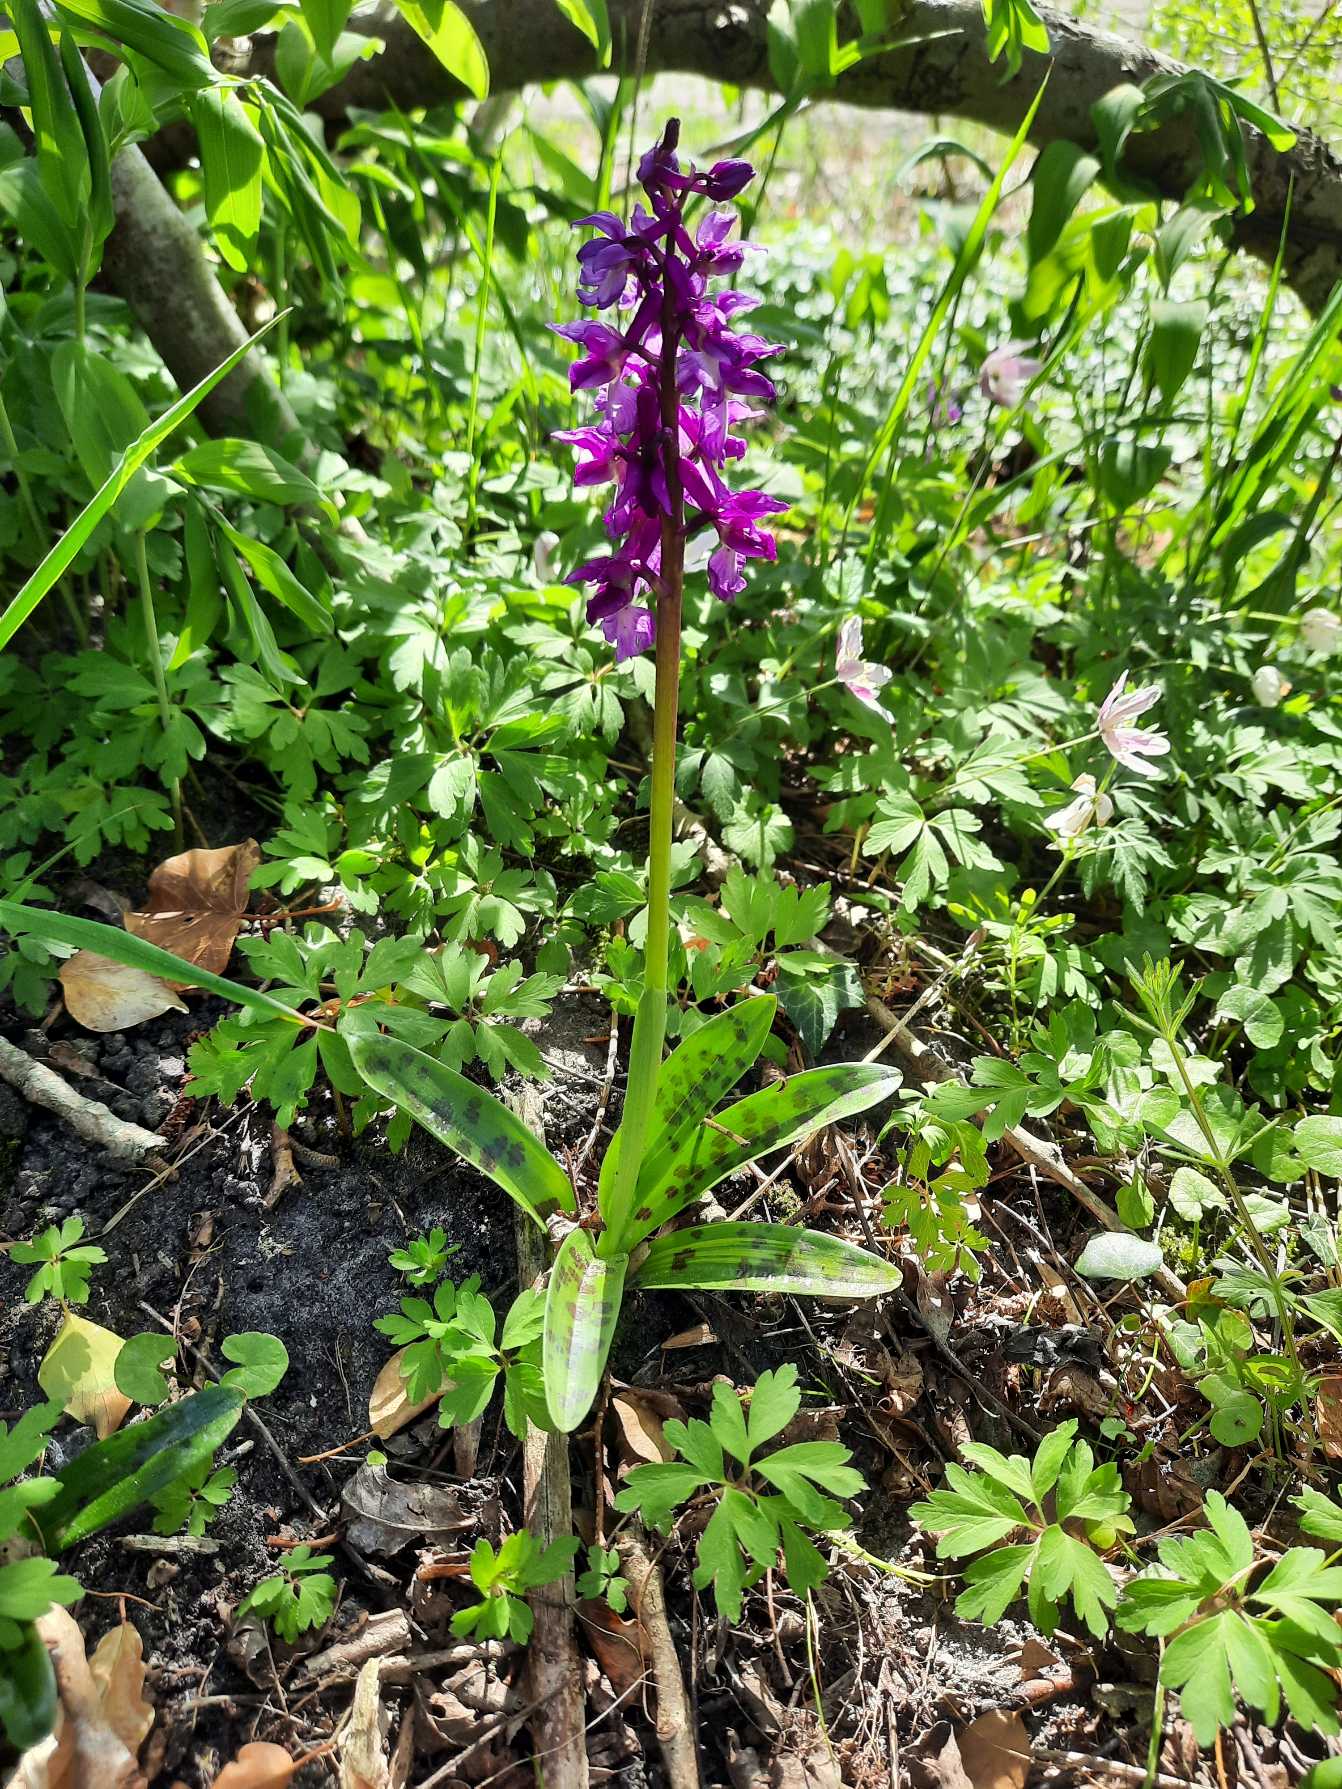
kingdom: Plantae
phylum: Tracheophyta
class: Liliopsida
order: Asparagales
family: Orchidaceae
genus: Orchis
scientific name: Orchis mascula
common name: Tyndakset gøgeurt
